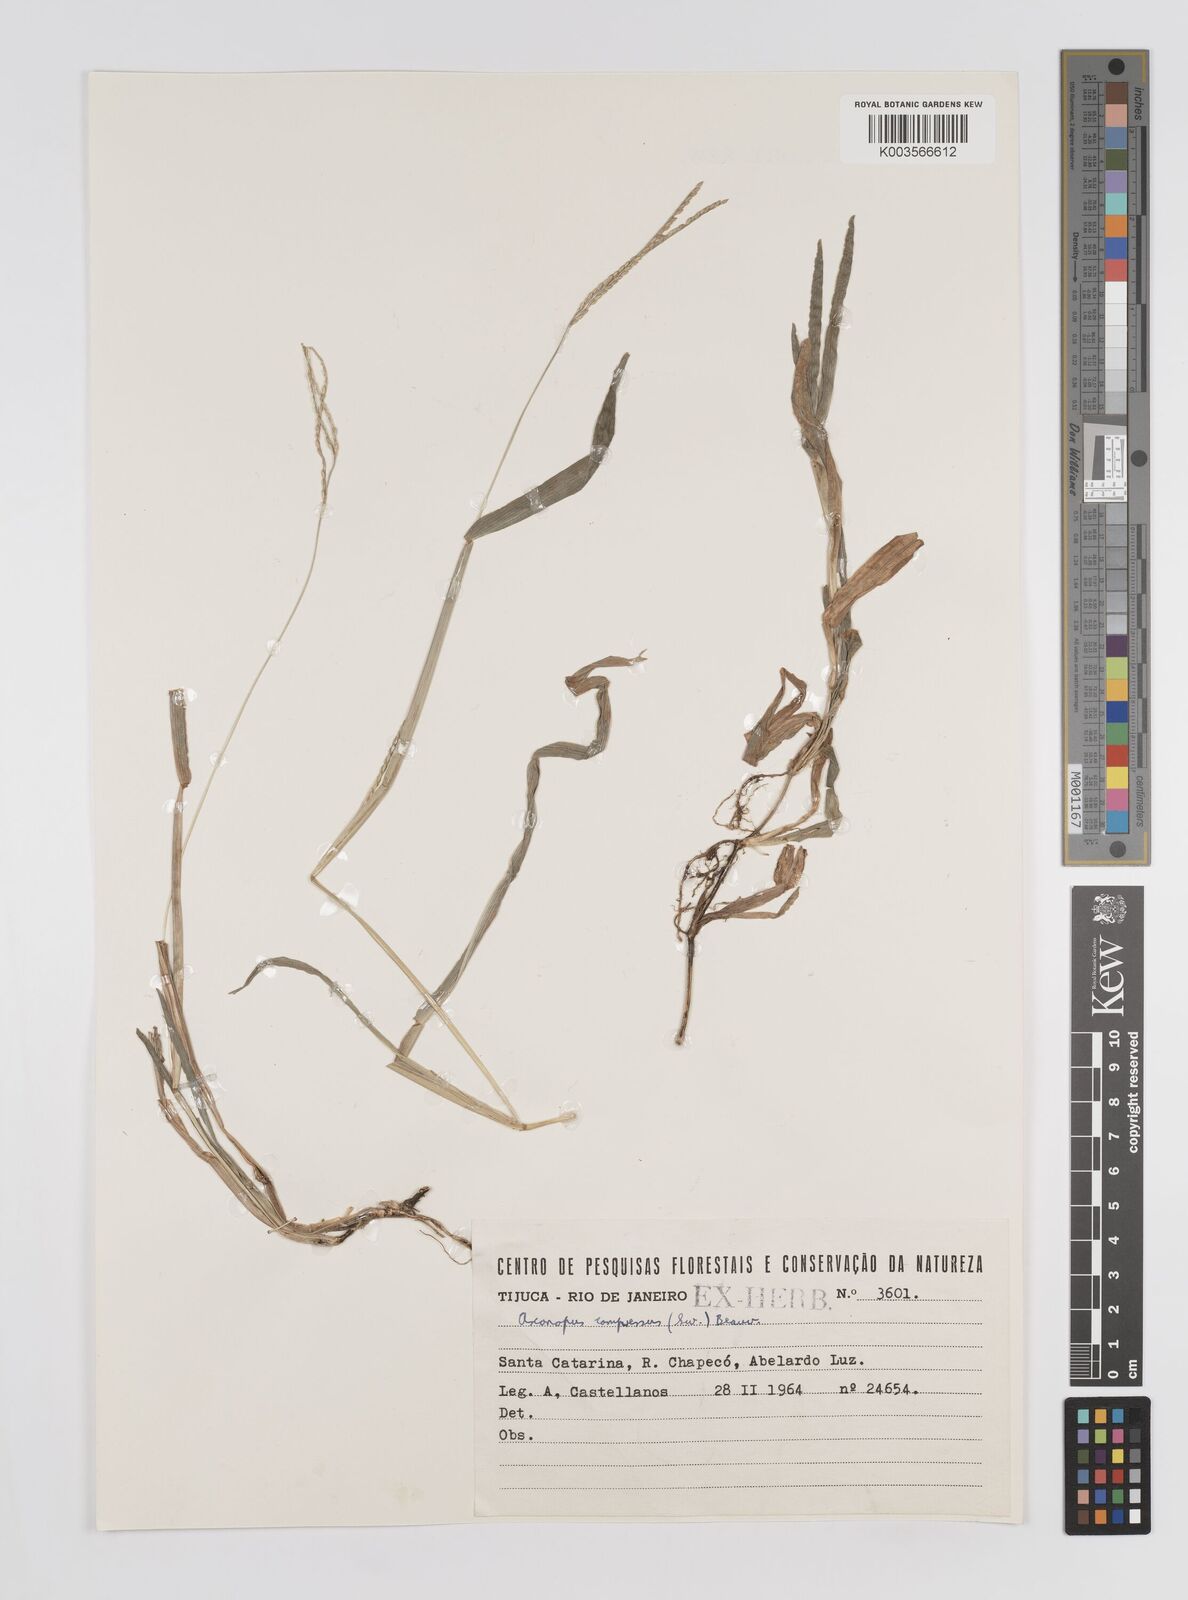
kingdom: Plantae
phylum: Tracheophyta
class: Liliopsida
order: Poales
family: Poaceae
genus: Axonopus
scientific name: Axonopus compressus
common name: American carpet grass
